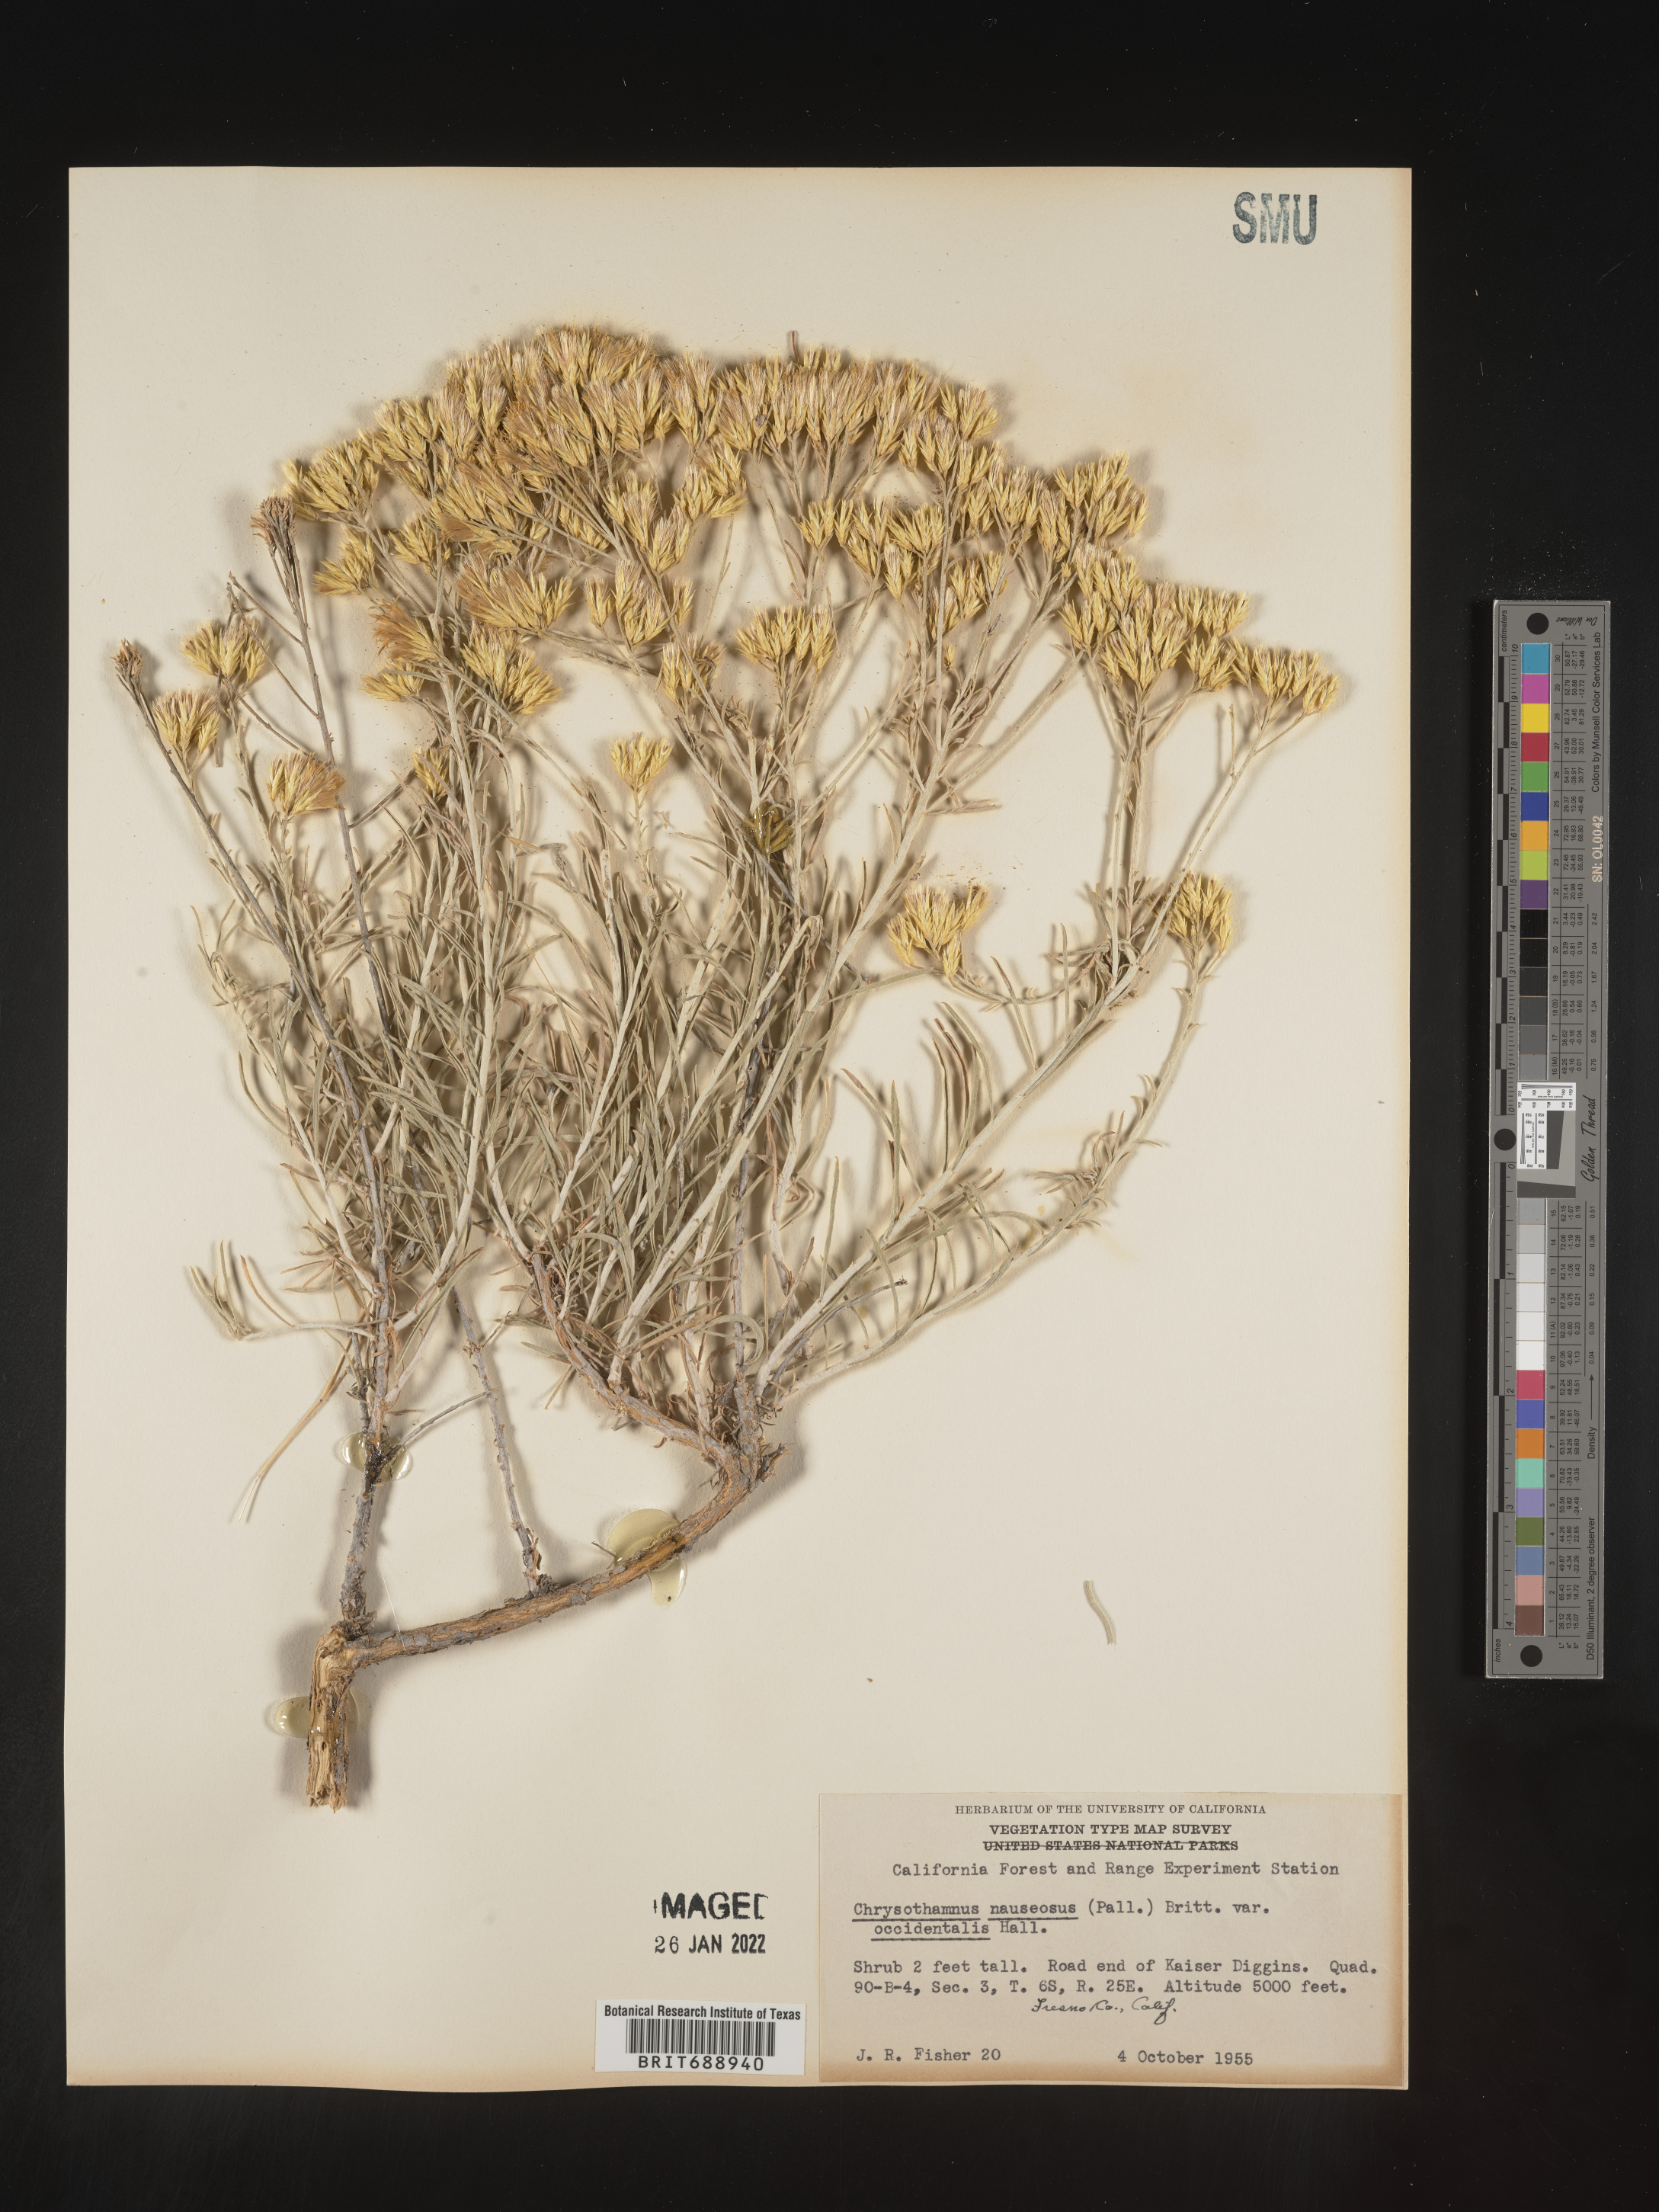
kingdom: Plantae
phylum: Tracheophyta
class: Magnoliopsida
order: Asterales
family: Asteraceae
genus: Ericameria
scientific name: Ericameria nauseosa
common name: Rubber rabbitbrush
